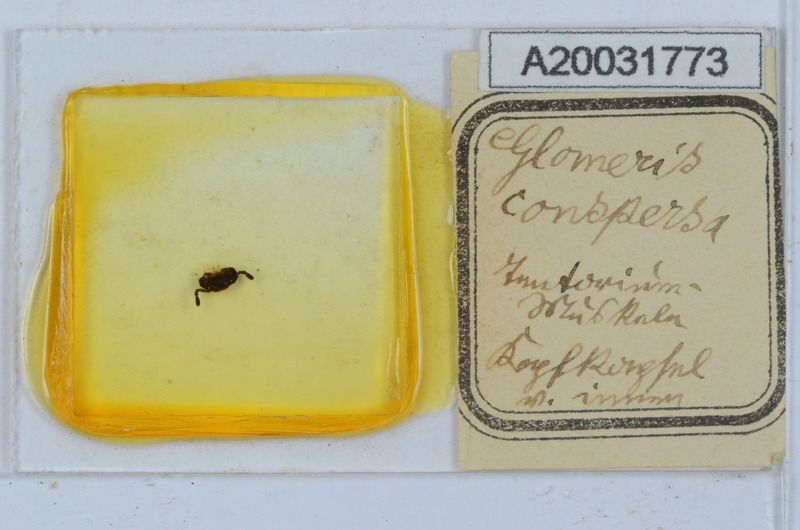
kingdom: Animalia
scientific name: Animalia
